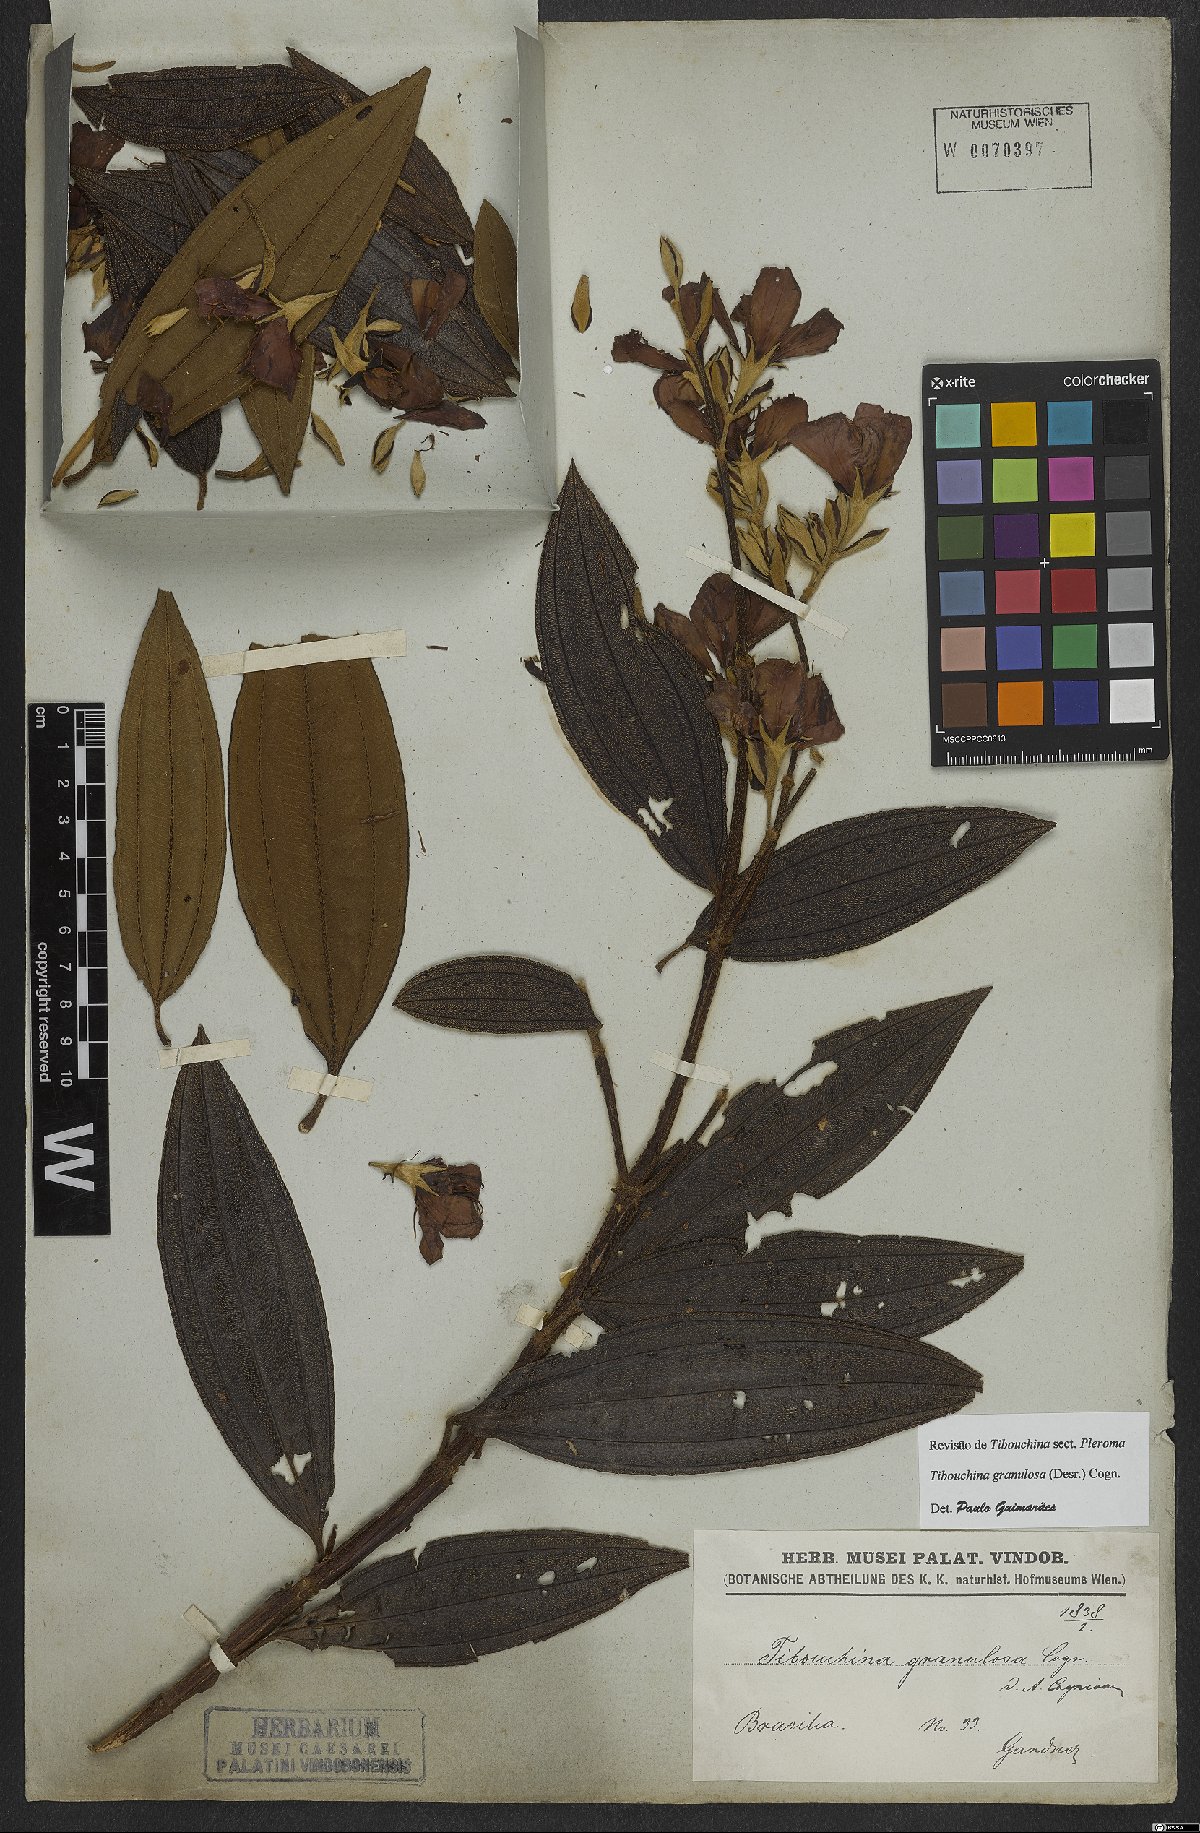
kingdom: Plantae
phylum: Tracheophyta
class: Magnoliopsida
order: Myrtales
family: Melastomataceae
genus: Pleroma
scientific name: Pleroma granulosum
